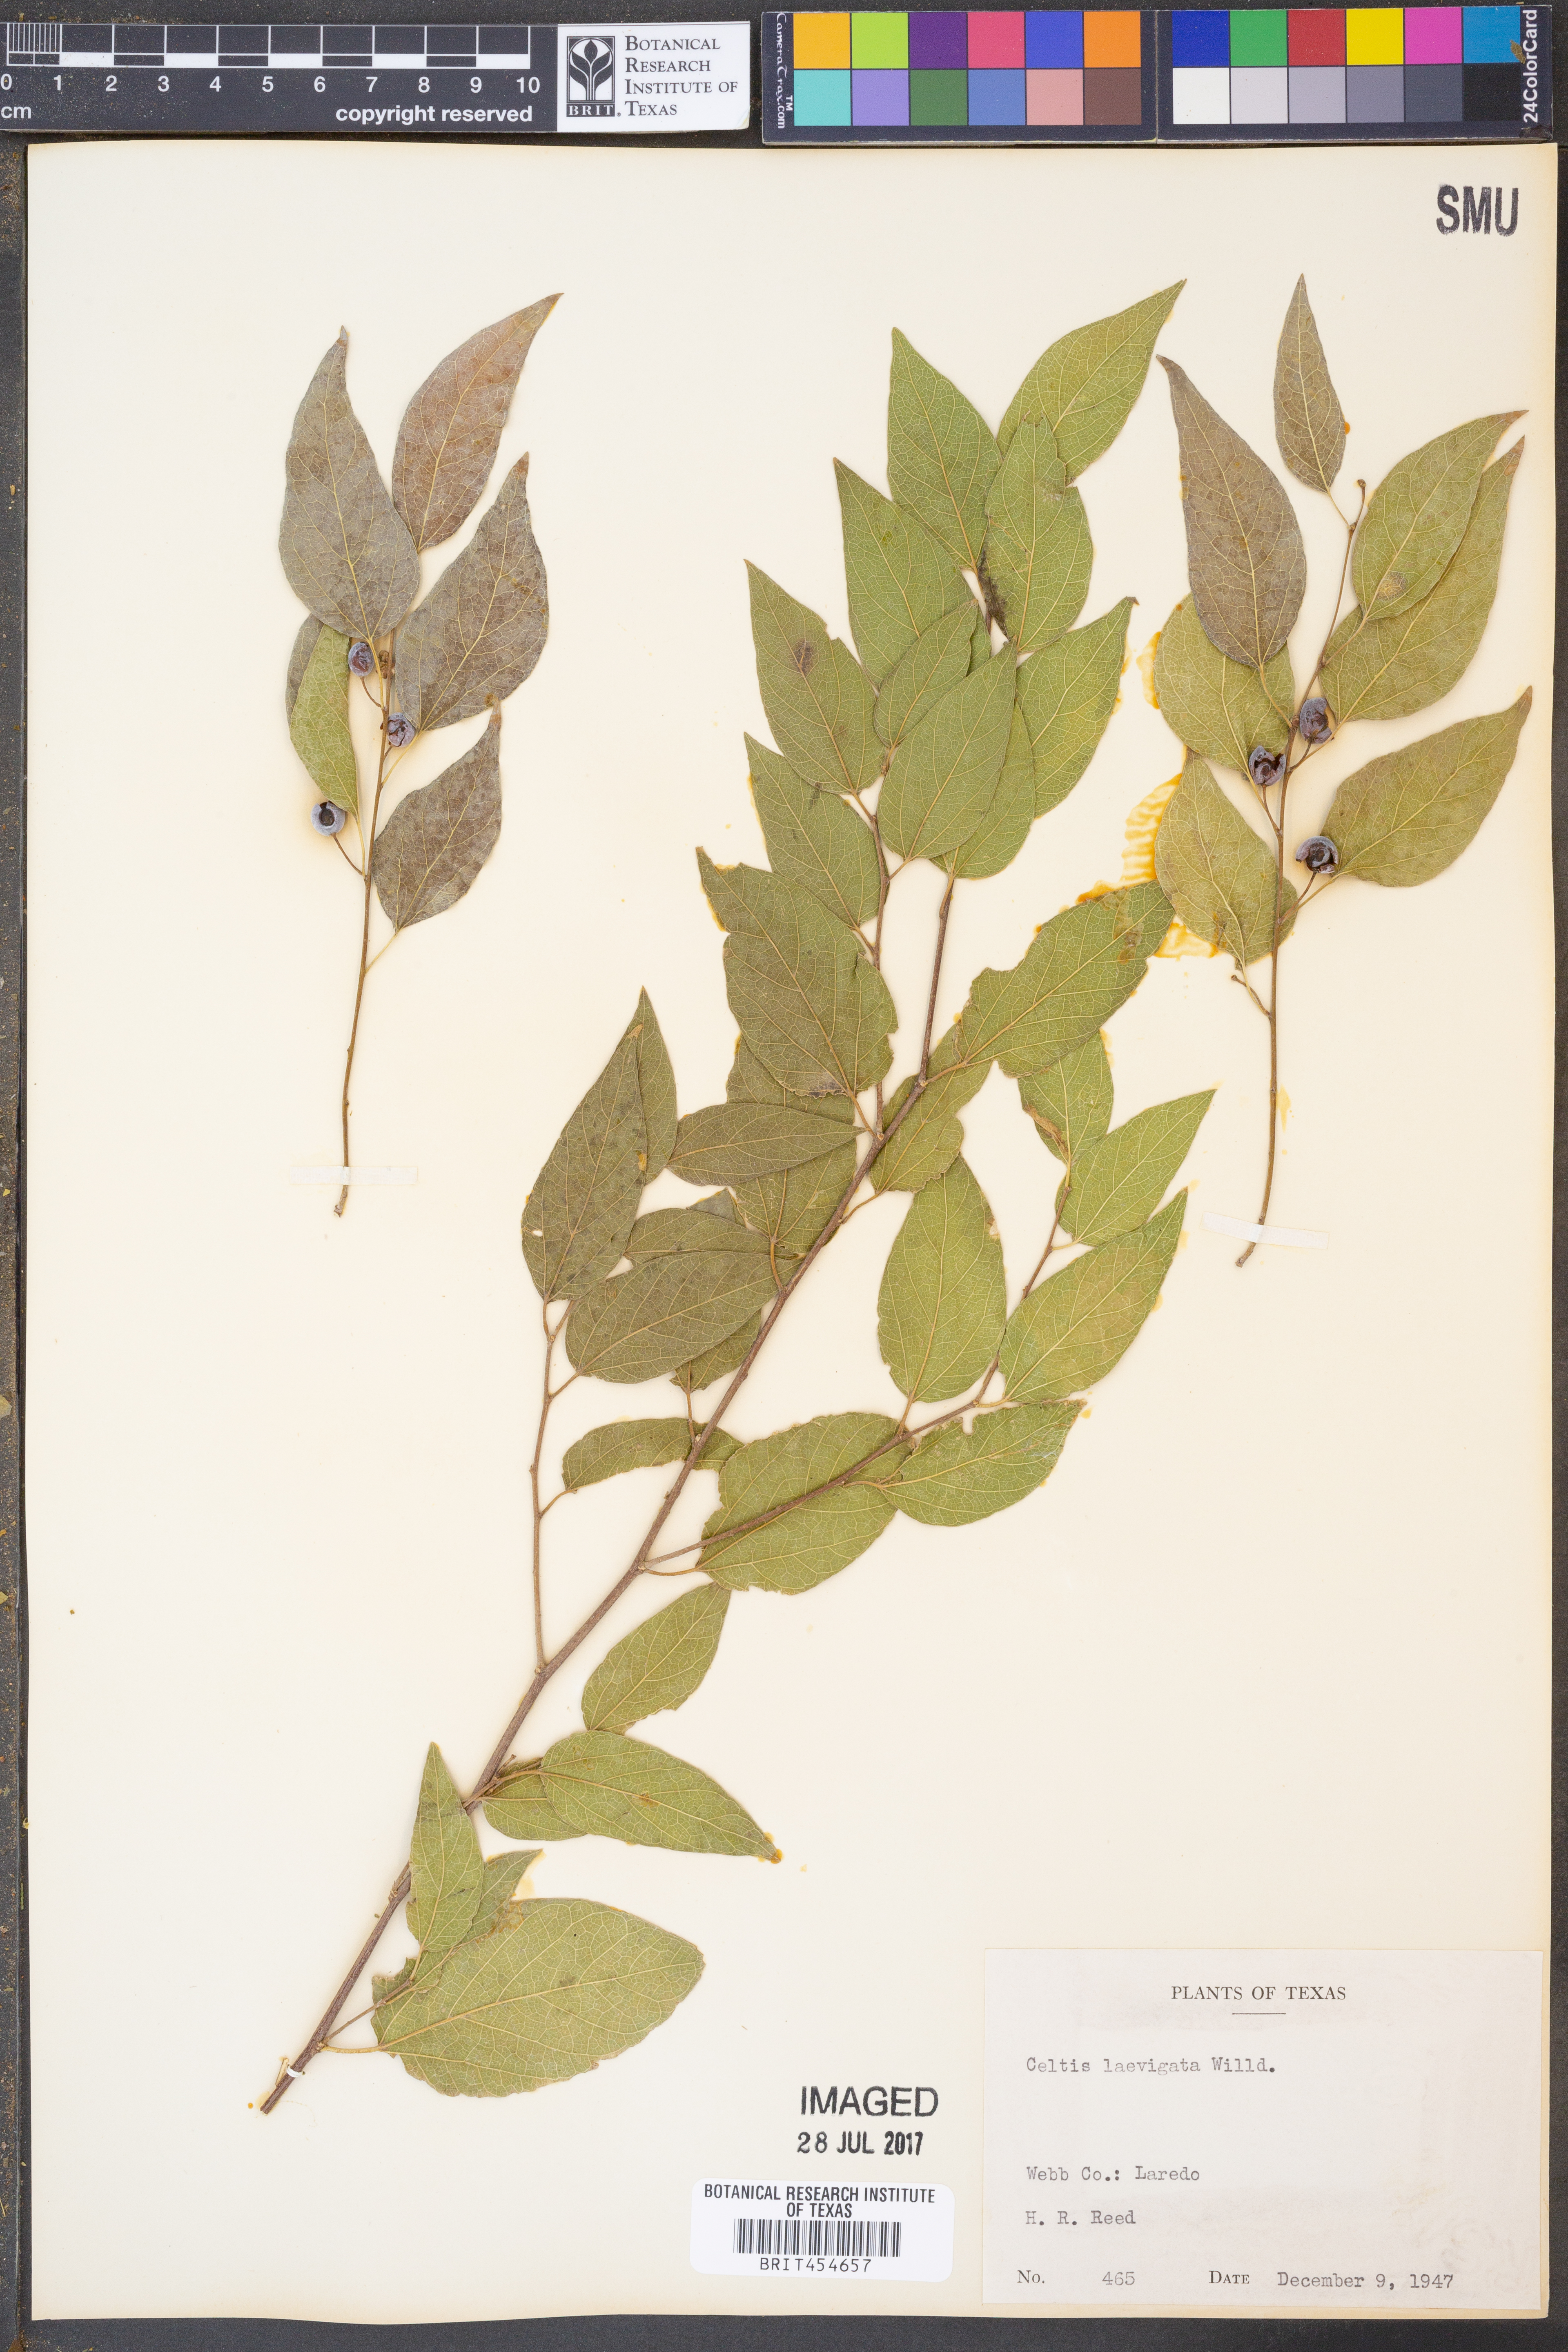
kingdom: Plantae
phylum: Tracheophyta
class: Magnoliopsida
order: Rosales
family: Cannabaceae
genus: Celtis
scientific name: Celtis laevigata
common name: Sugarberry
